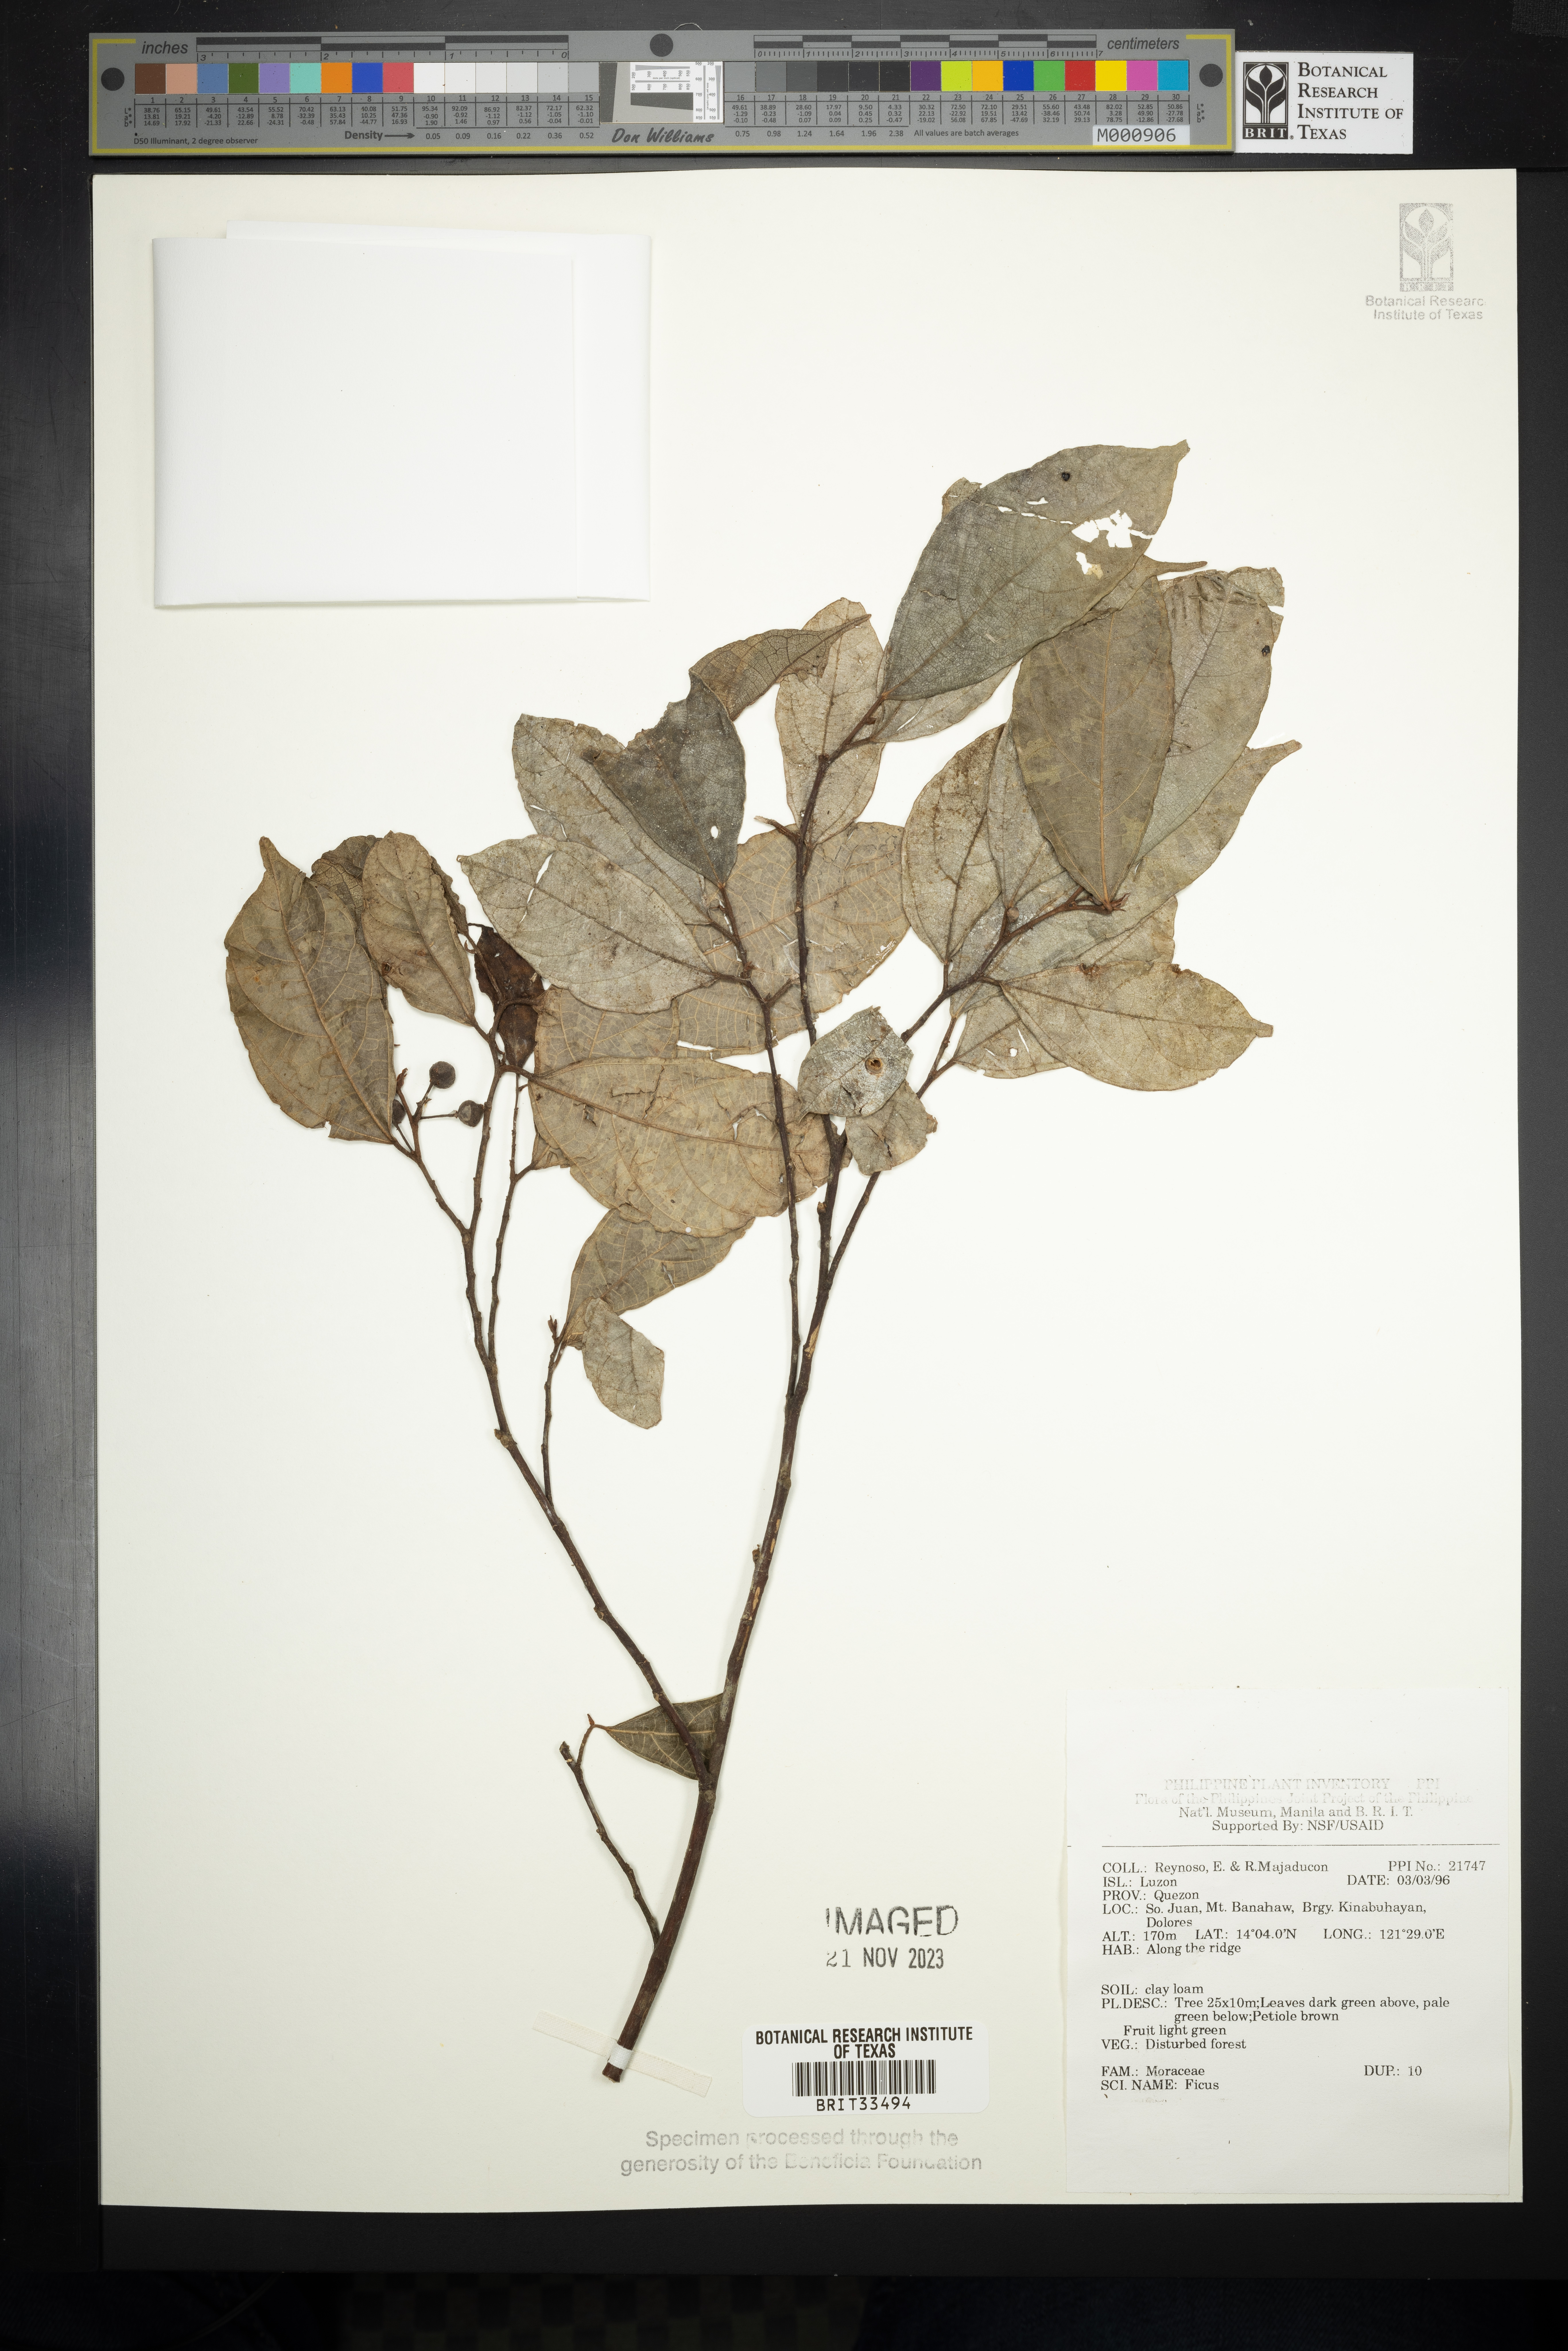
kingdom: Plantae
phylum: Tracheophyta
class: Magnoliopsida
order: Rosales
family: Moraceae
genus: Ficus
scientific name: Ficus
